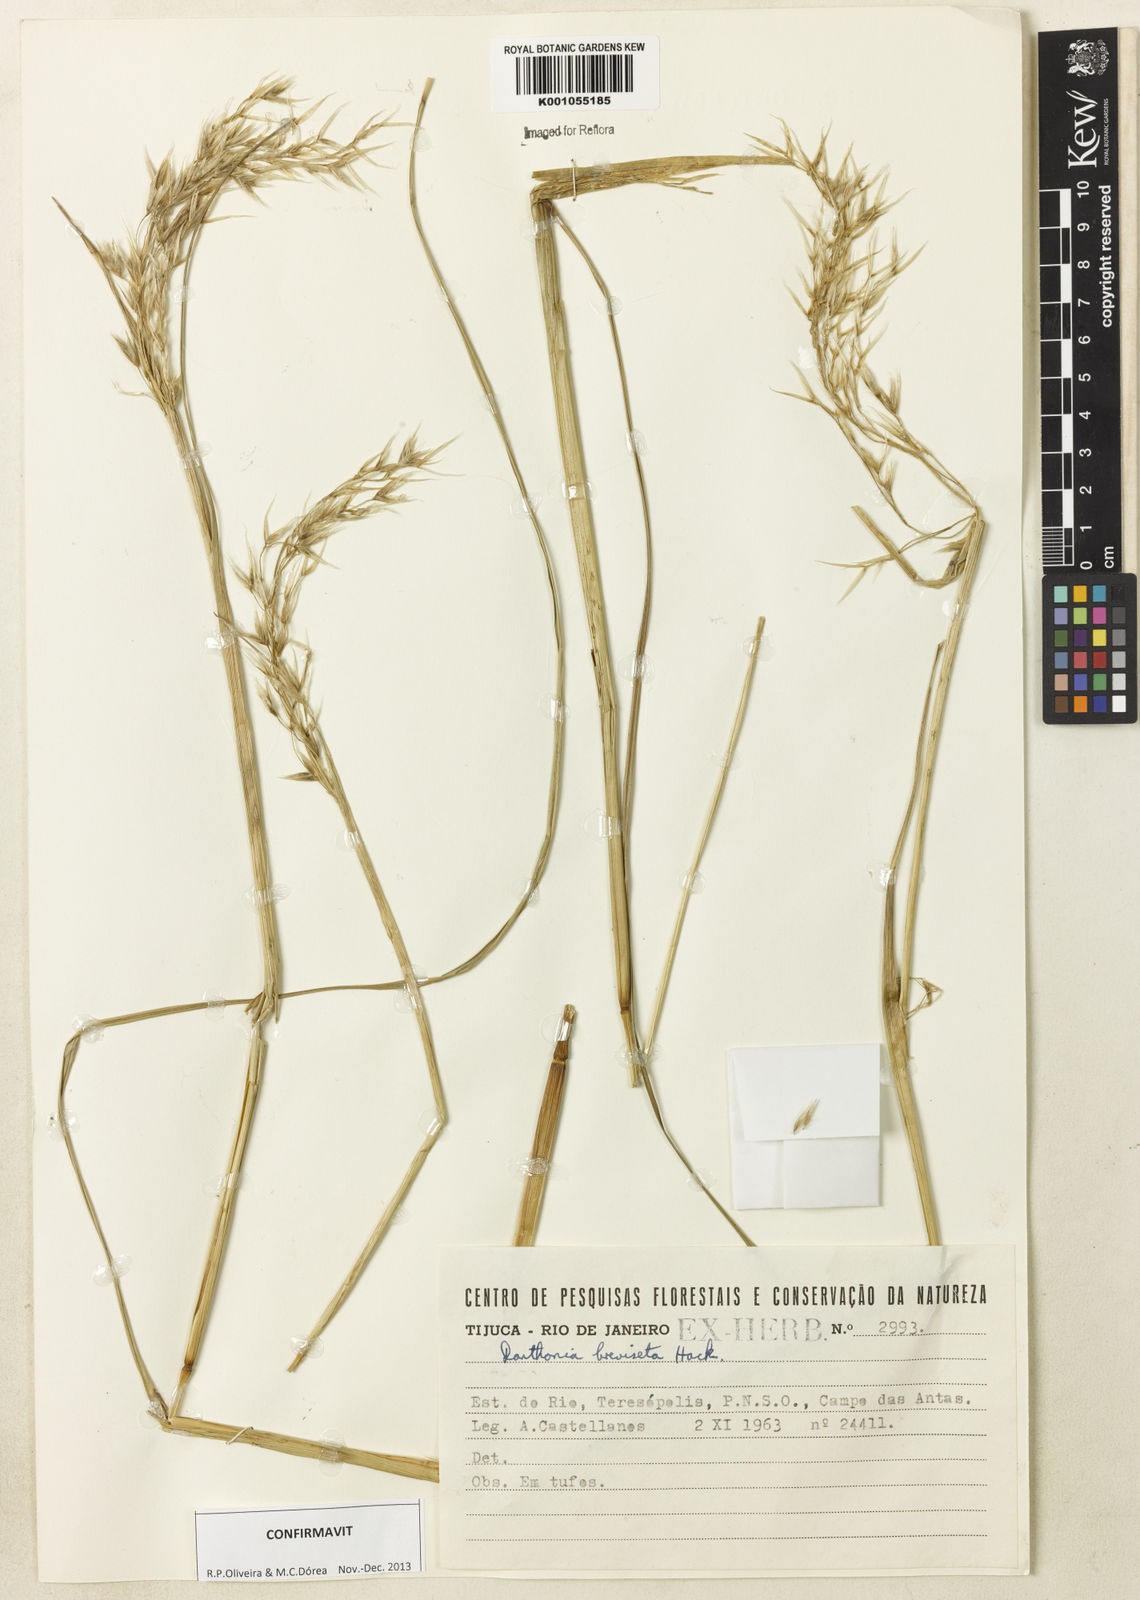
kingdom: Plantae
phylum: Tracheophyta
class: Liliopsida
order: Poales
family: Poaceae
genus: Danthonia
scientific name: Danthonia breviseta
